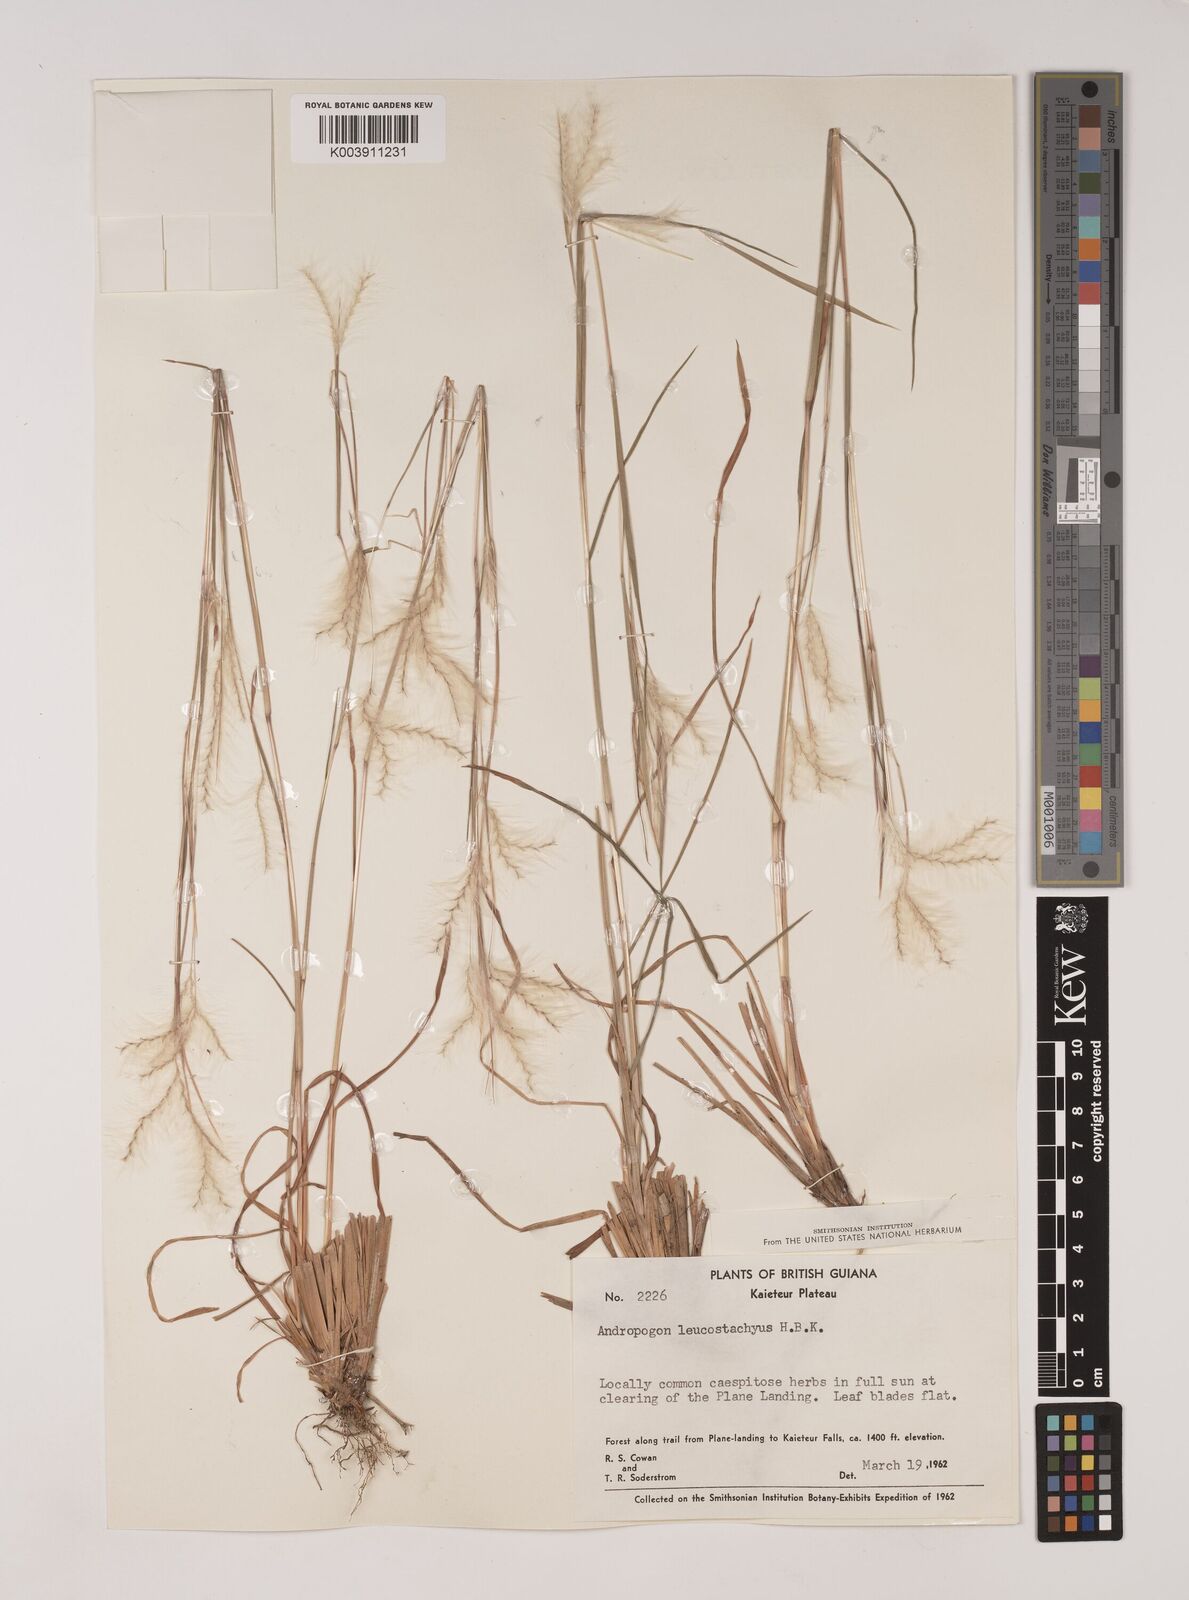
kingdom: Plantae
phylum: Tracheophyta
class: Liliopsida
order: Poales
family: Poaceae
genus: Andropogon
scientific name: Andropogon leucostachyus
